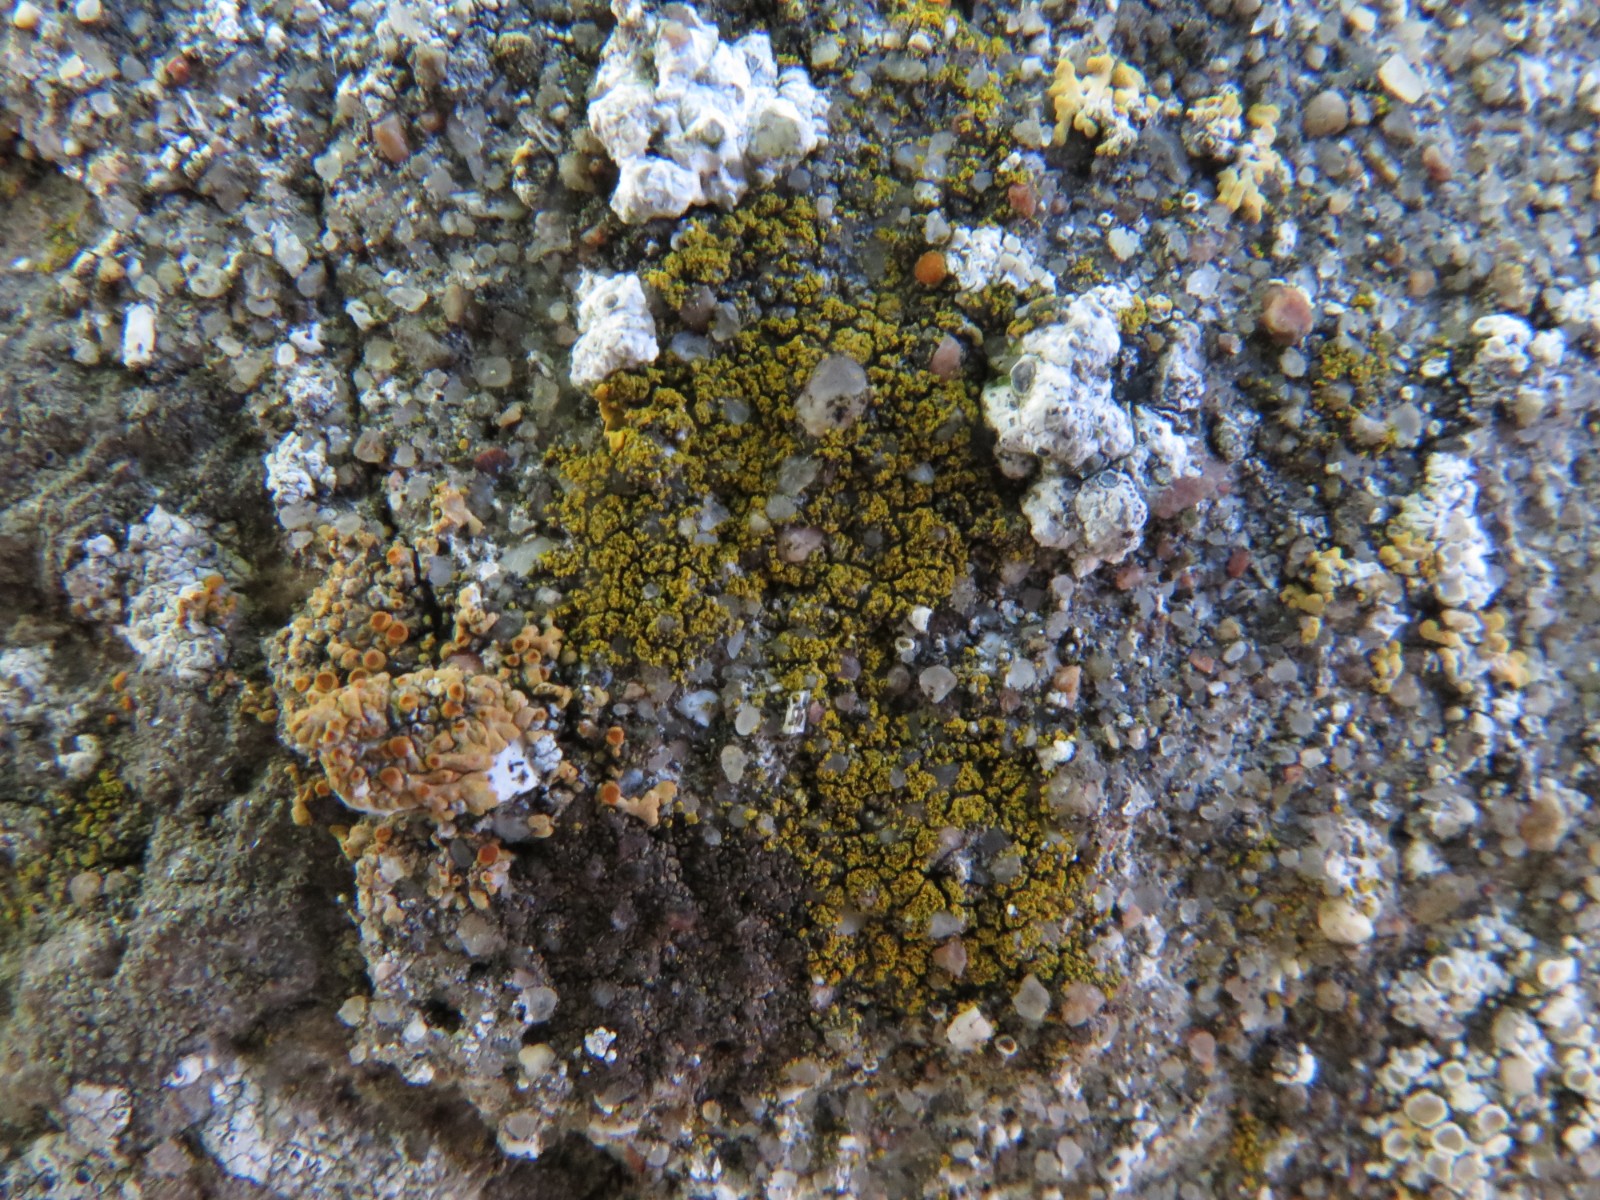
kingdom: Fungi
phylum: Ascomycota
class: Candelariomycetes
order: Candelariales
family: Candelariaceae
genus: Candelariella
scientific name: Candelariella vitellina
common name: almindelig æggeblommelav
